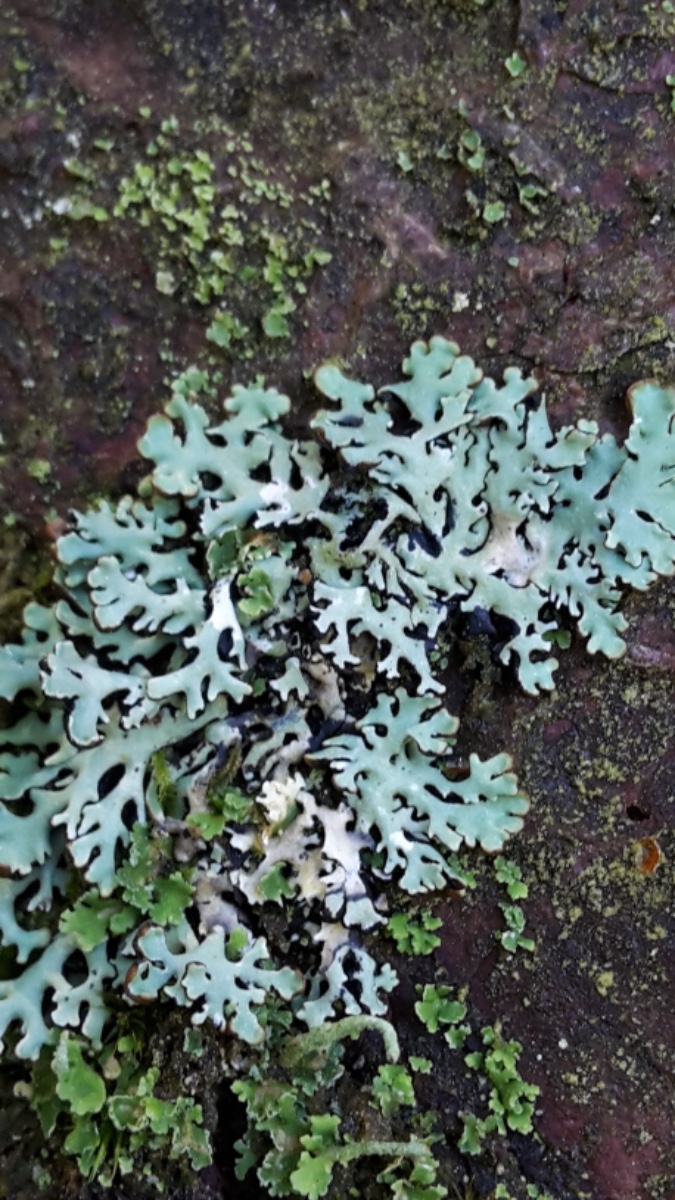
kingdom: Fungi
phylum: Ascomycota
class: Lecanoromycetes
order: Lecanorales
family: Parmeliaceae
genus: Hypogymnia
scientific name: Hypogymnia physodes
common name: almindelig kvistlav
